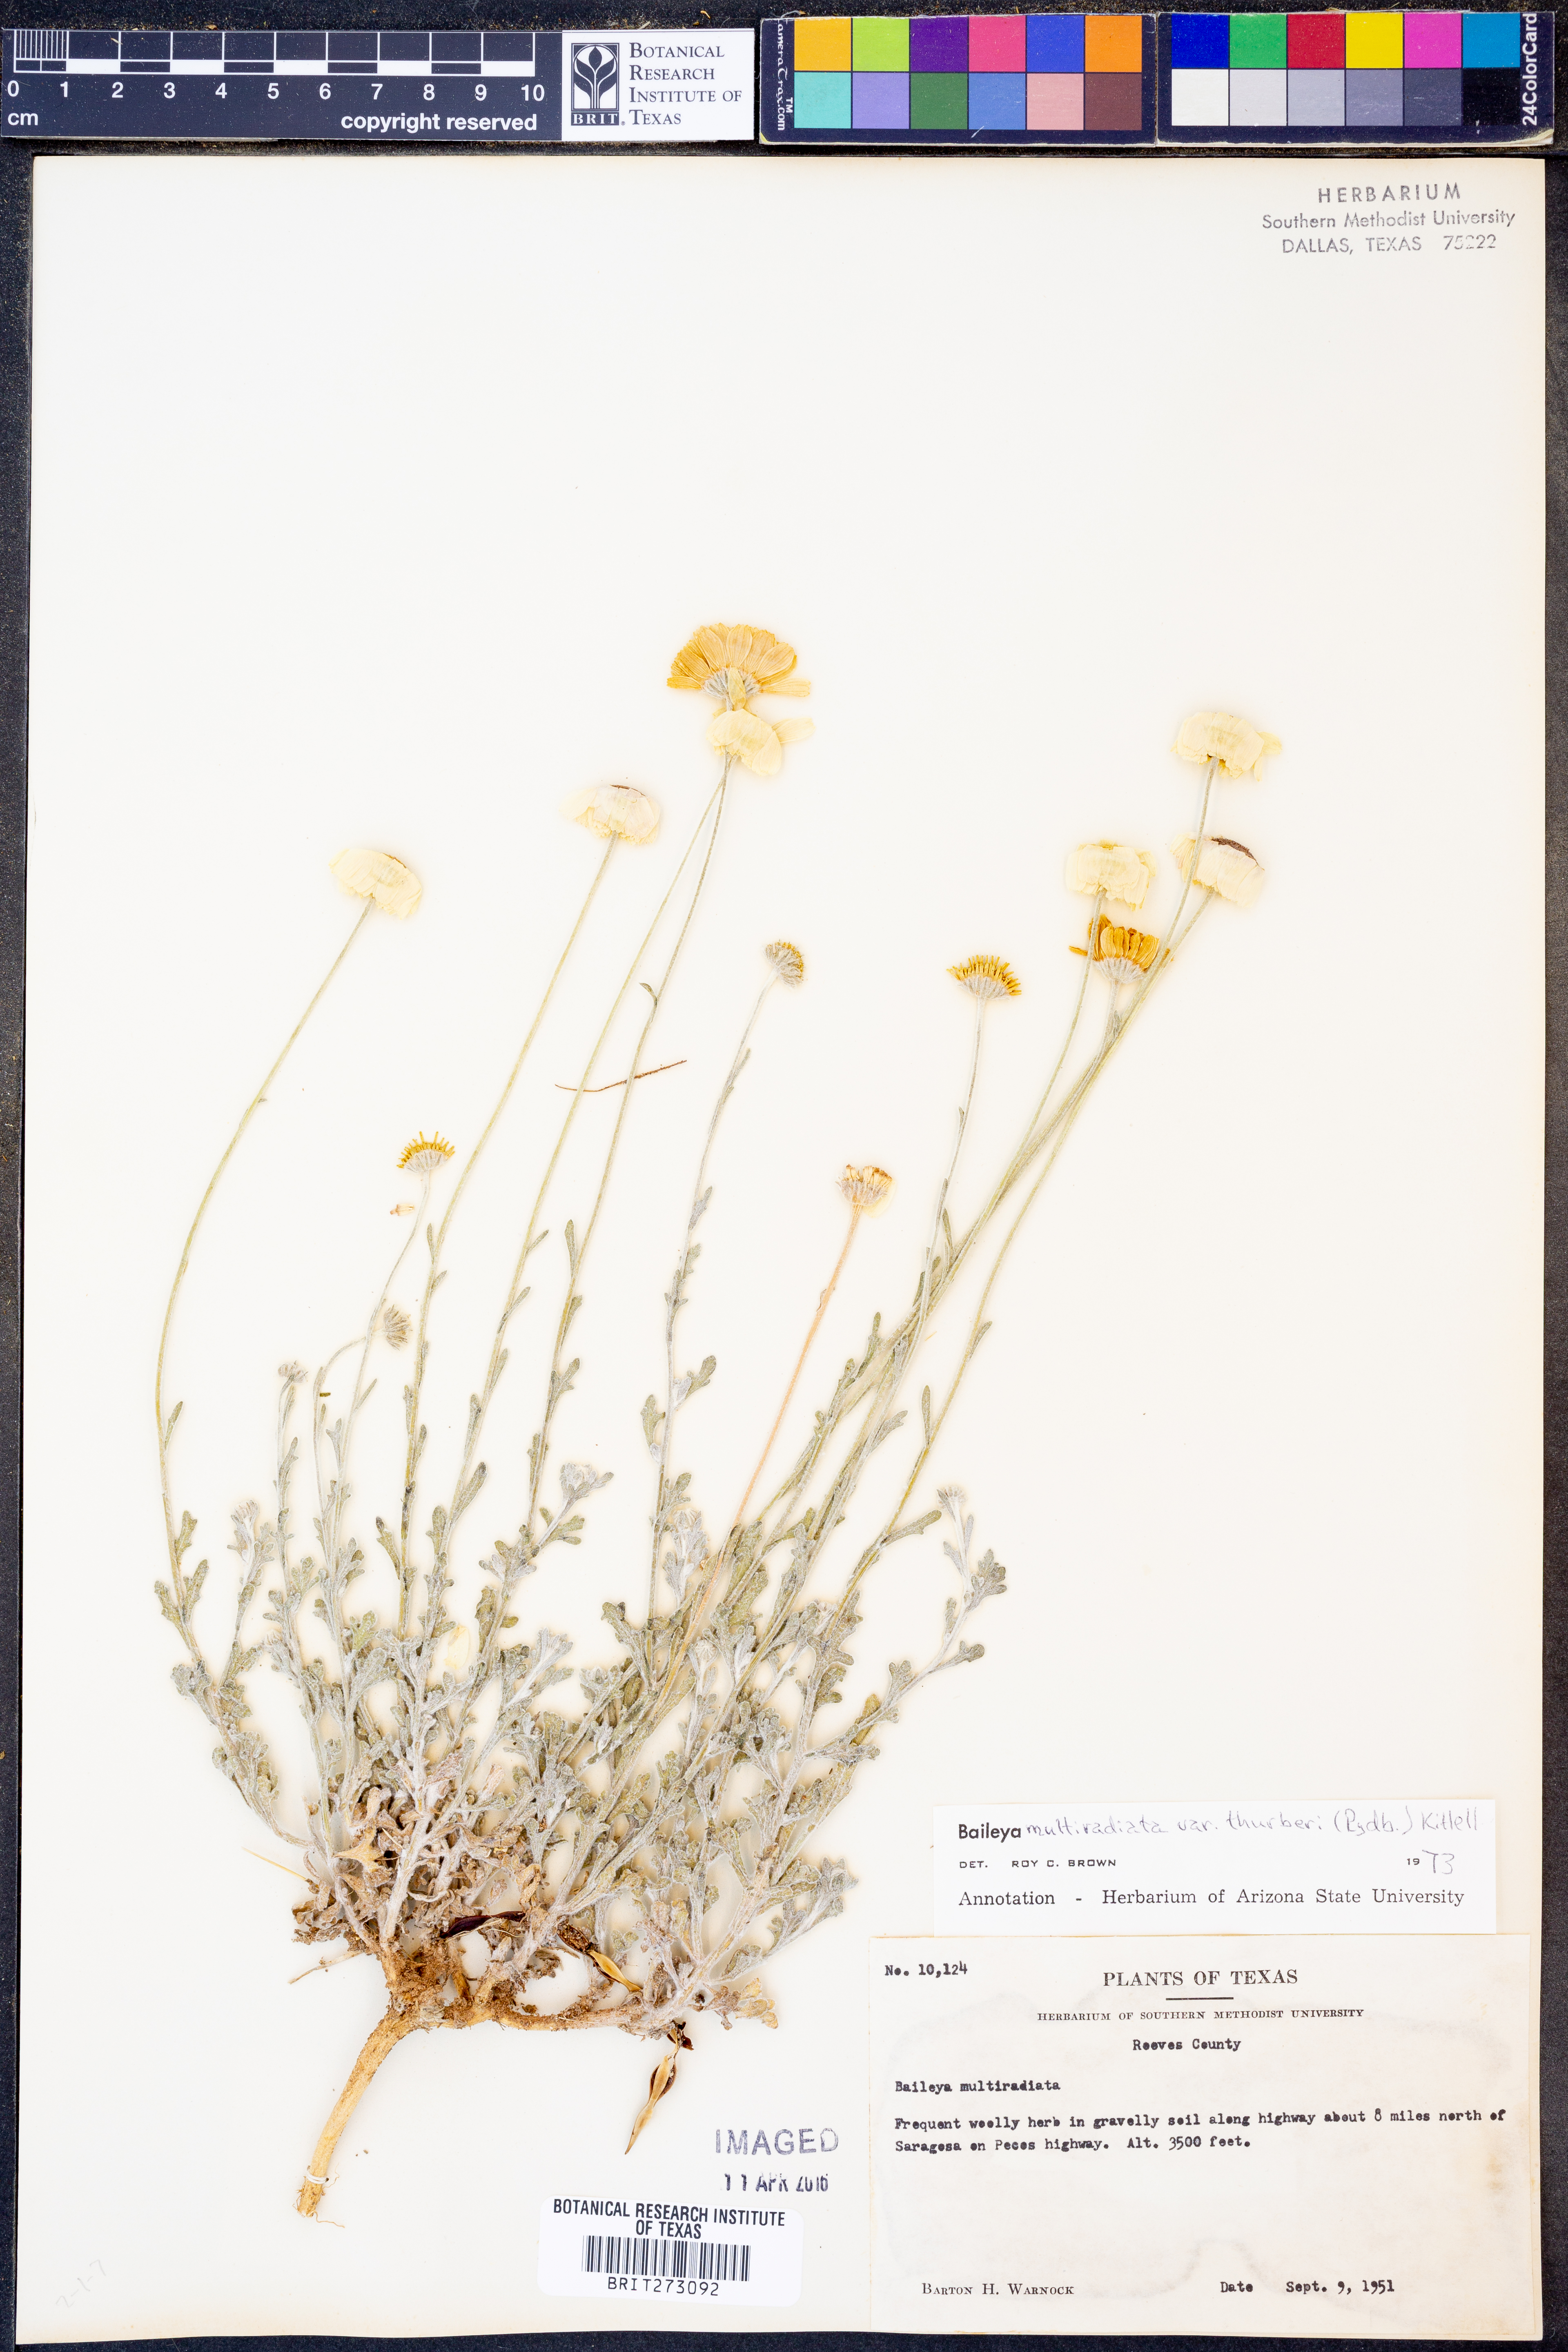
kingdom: Plantae
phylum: Tracheophyta
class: Magnoliopsida
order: Asterales
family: Asteraceae
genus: Baileya
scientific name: Baileya multiradiata
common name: Desert-marigold
